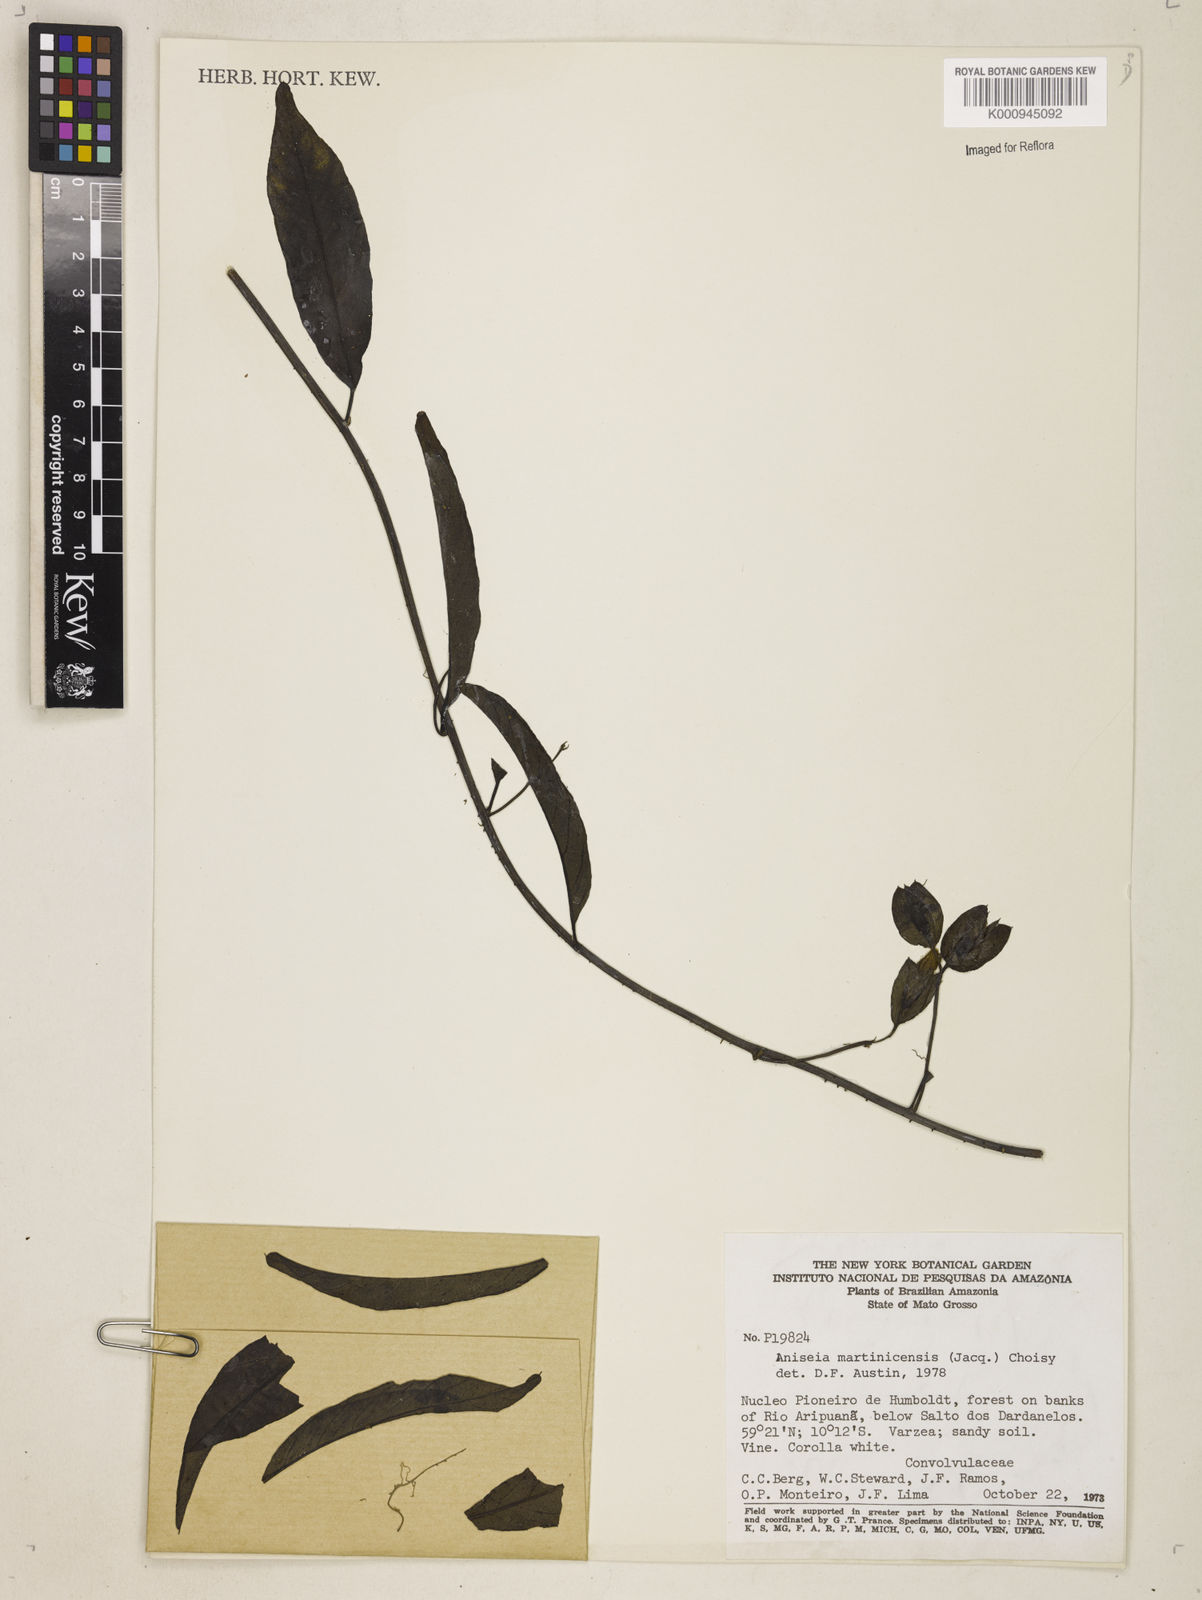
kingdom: Plantae
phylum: Tracheophyta
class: Magnoliopsida
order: Solanales
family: Convolvulaceae
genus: Aniseia
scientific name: Aniseia martinicensis
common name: Kulayadambu
